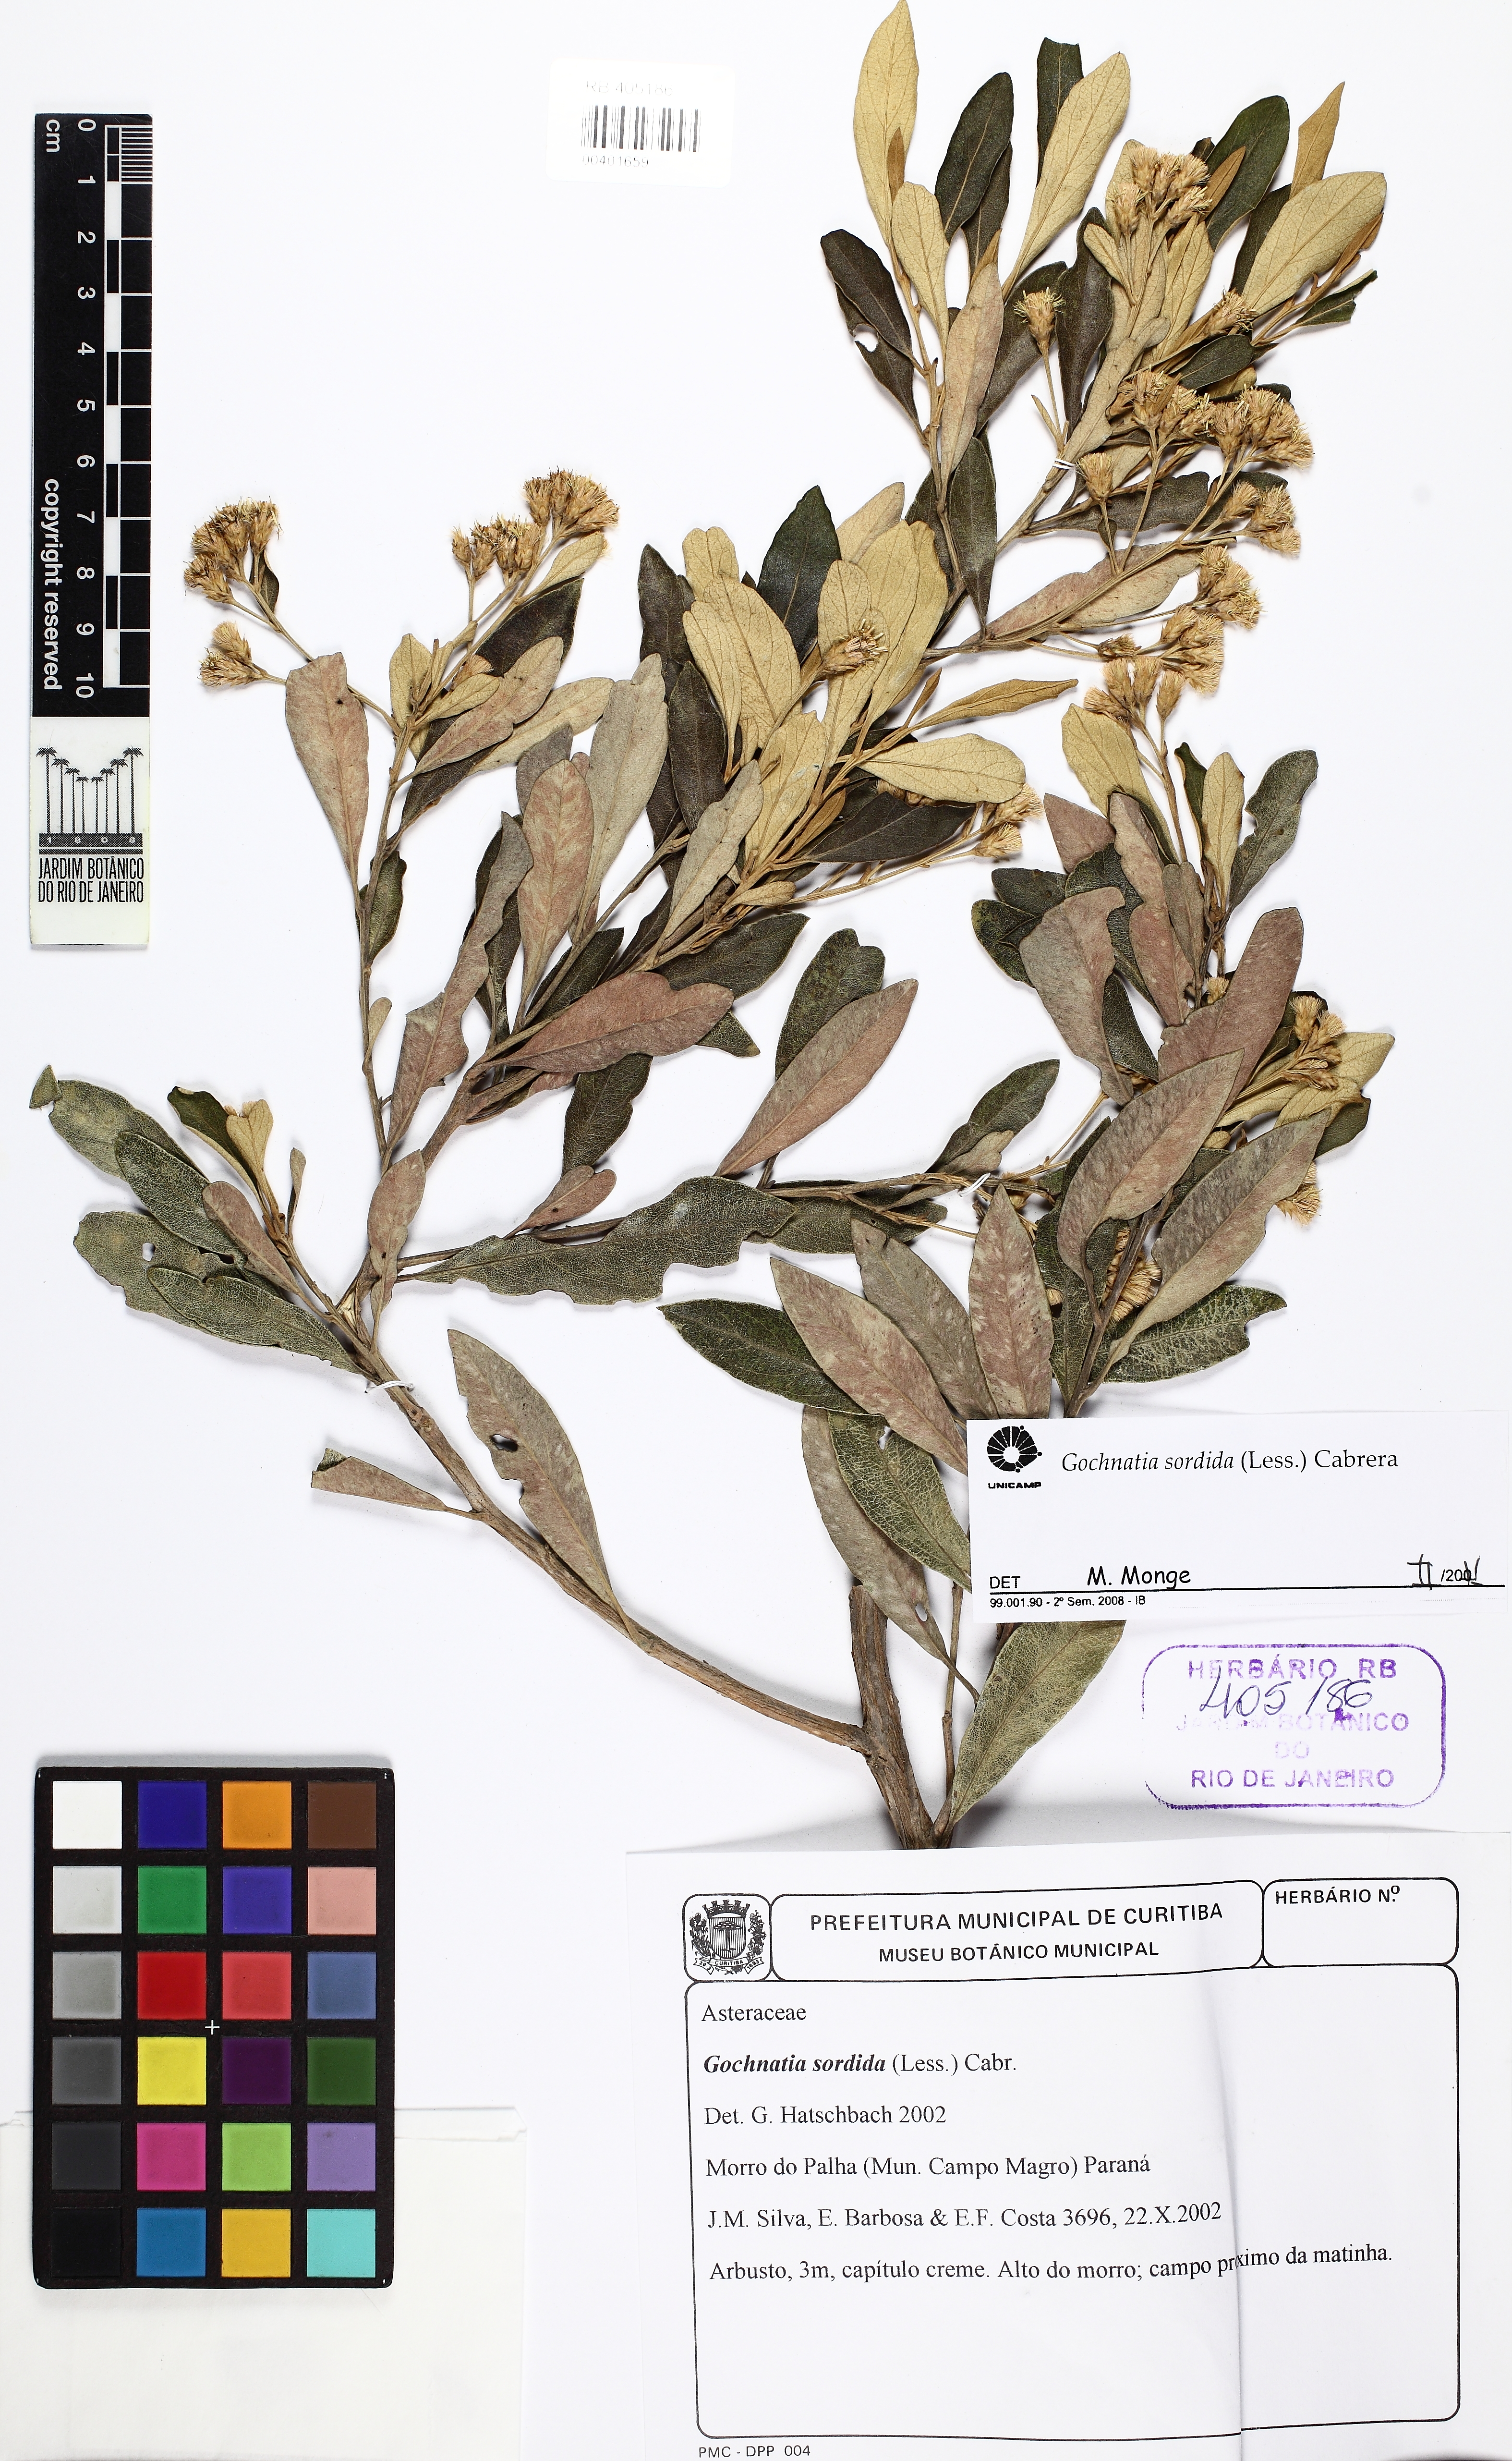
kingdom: Plantae
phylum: Tracheophyta
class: Magnoliopsida
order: Asterales
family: Asteraceae
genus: Moquiniastrum
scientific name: Moquiniastrum sordidum
